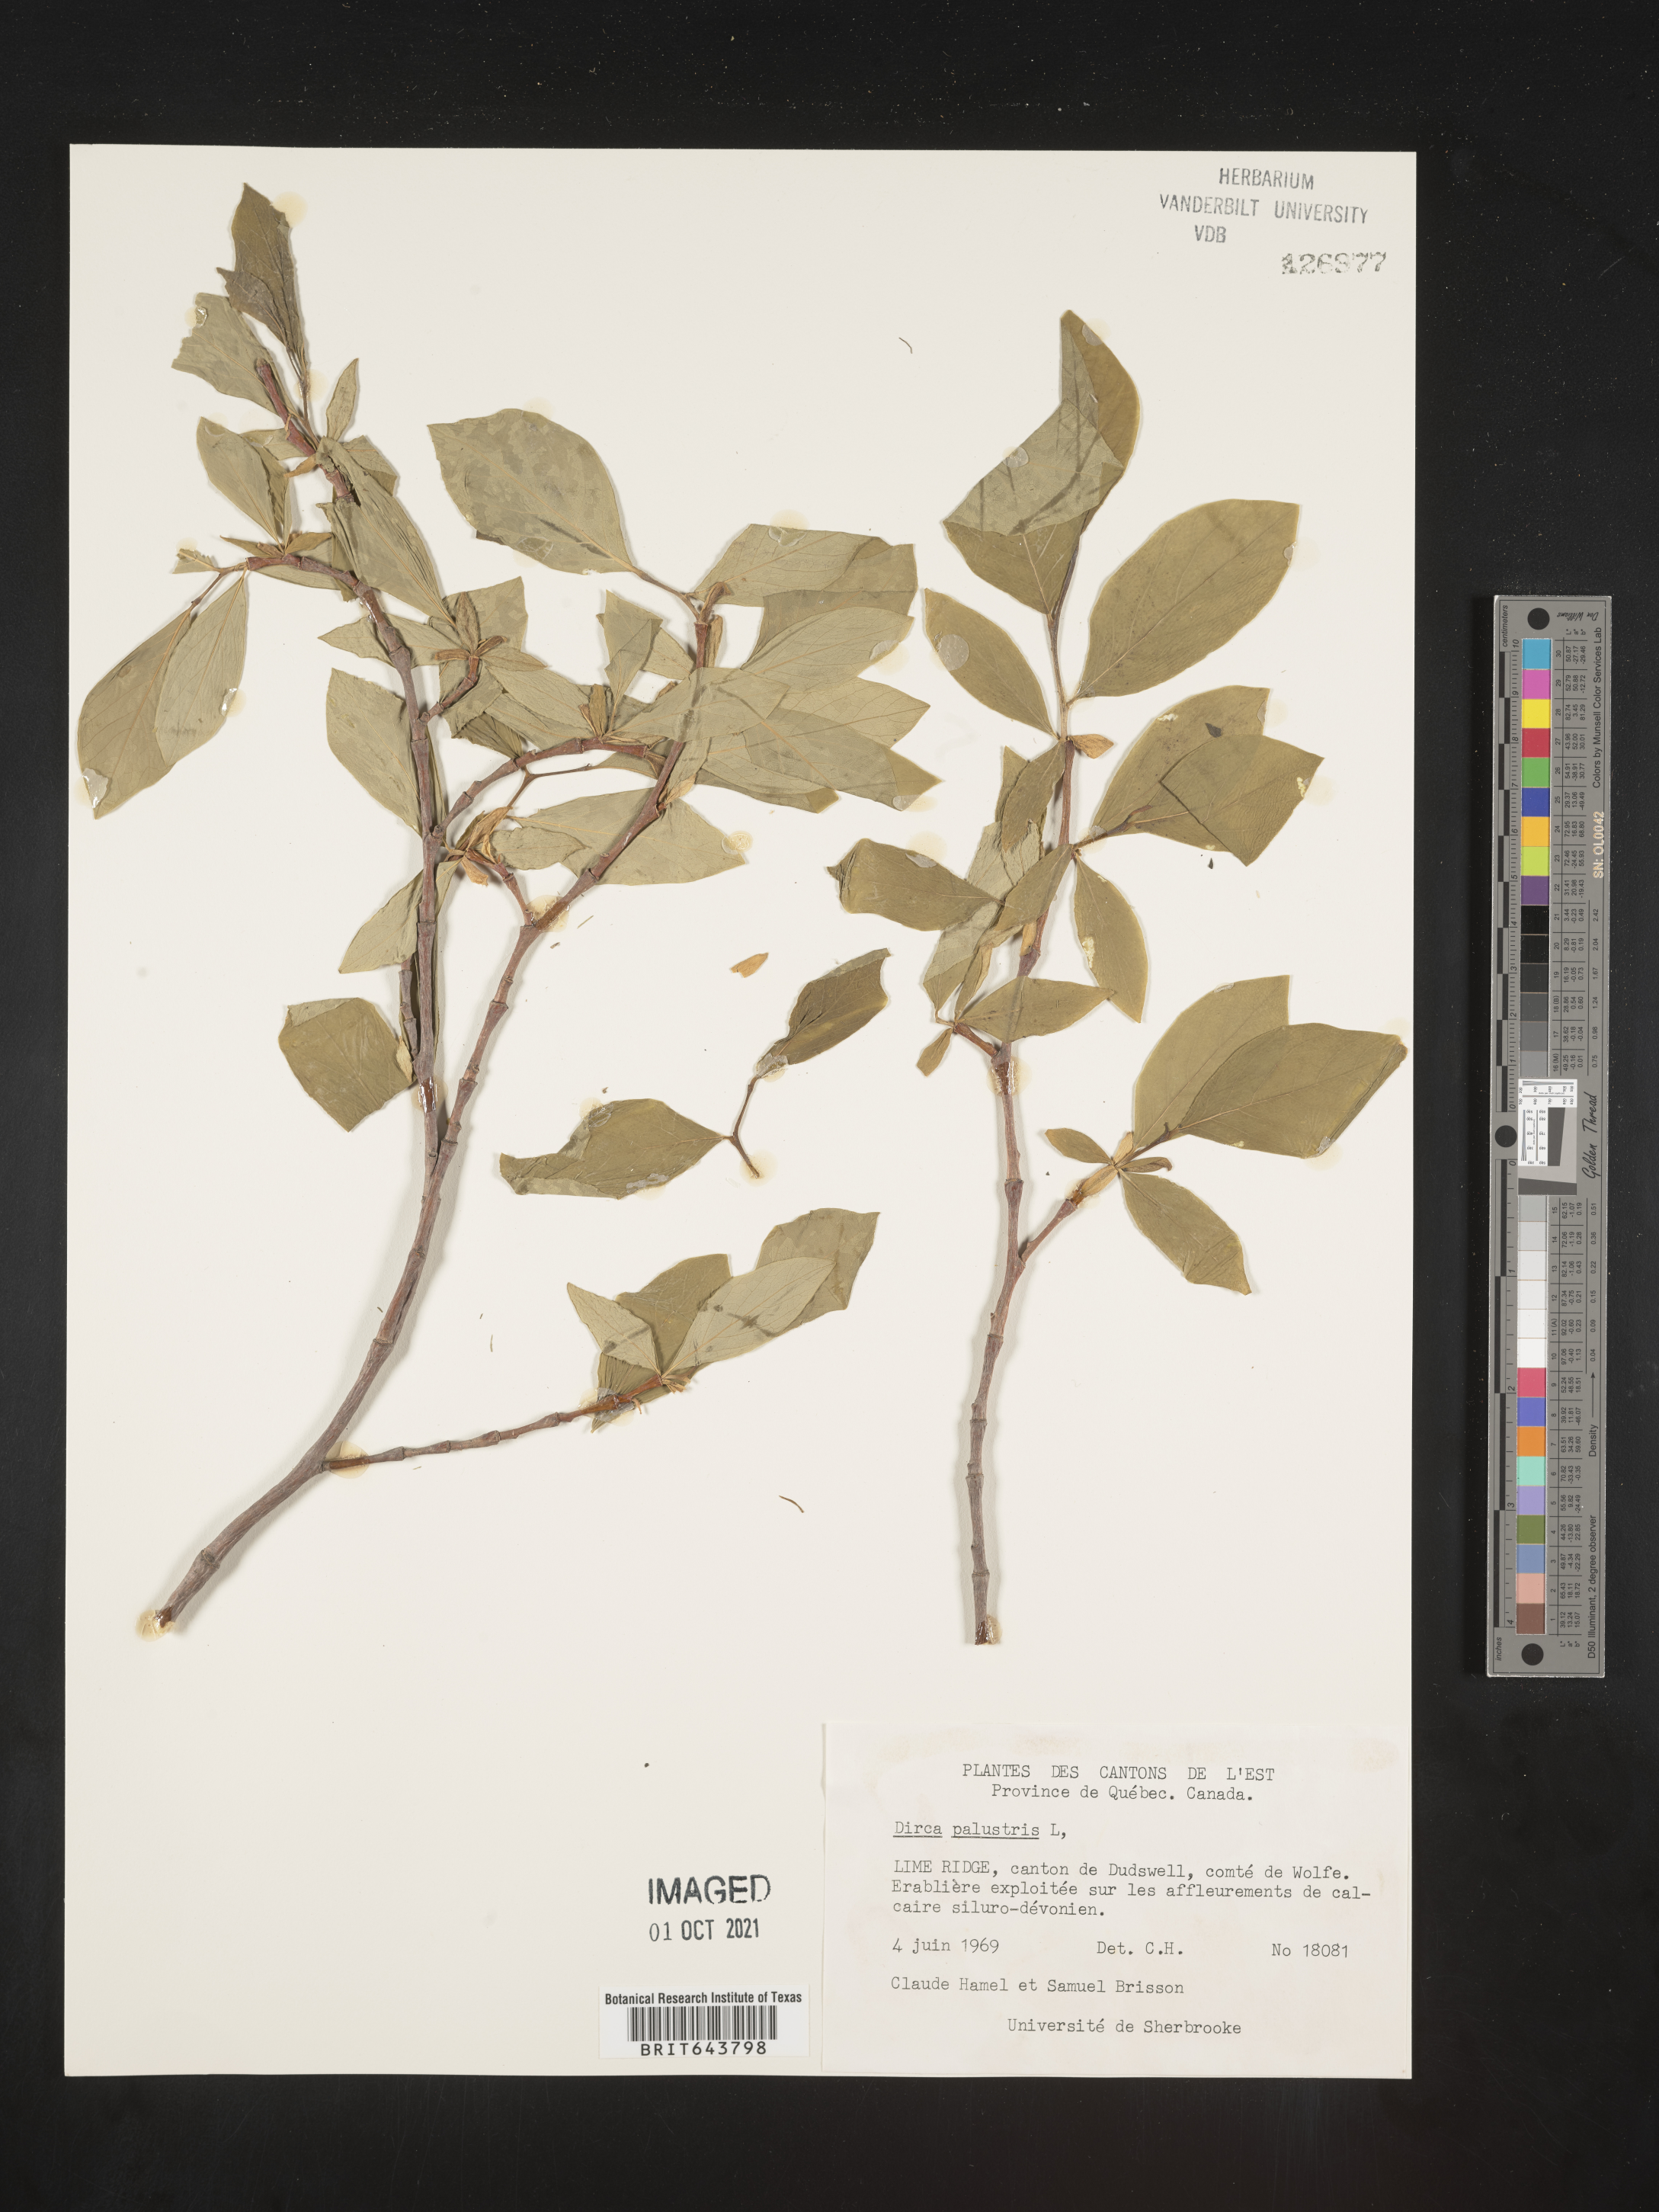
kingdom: Plantae
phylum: Tracheophyta
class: Magnoliopsida
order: Malvales
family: Thymelaeaceae
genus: Dirca
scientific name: Dirca
